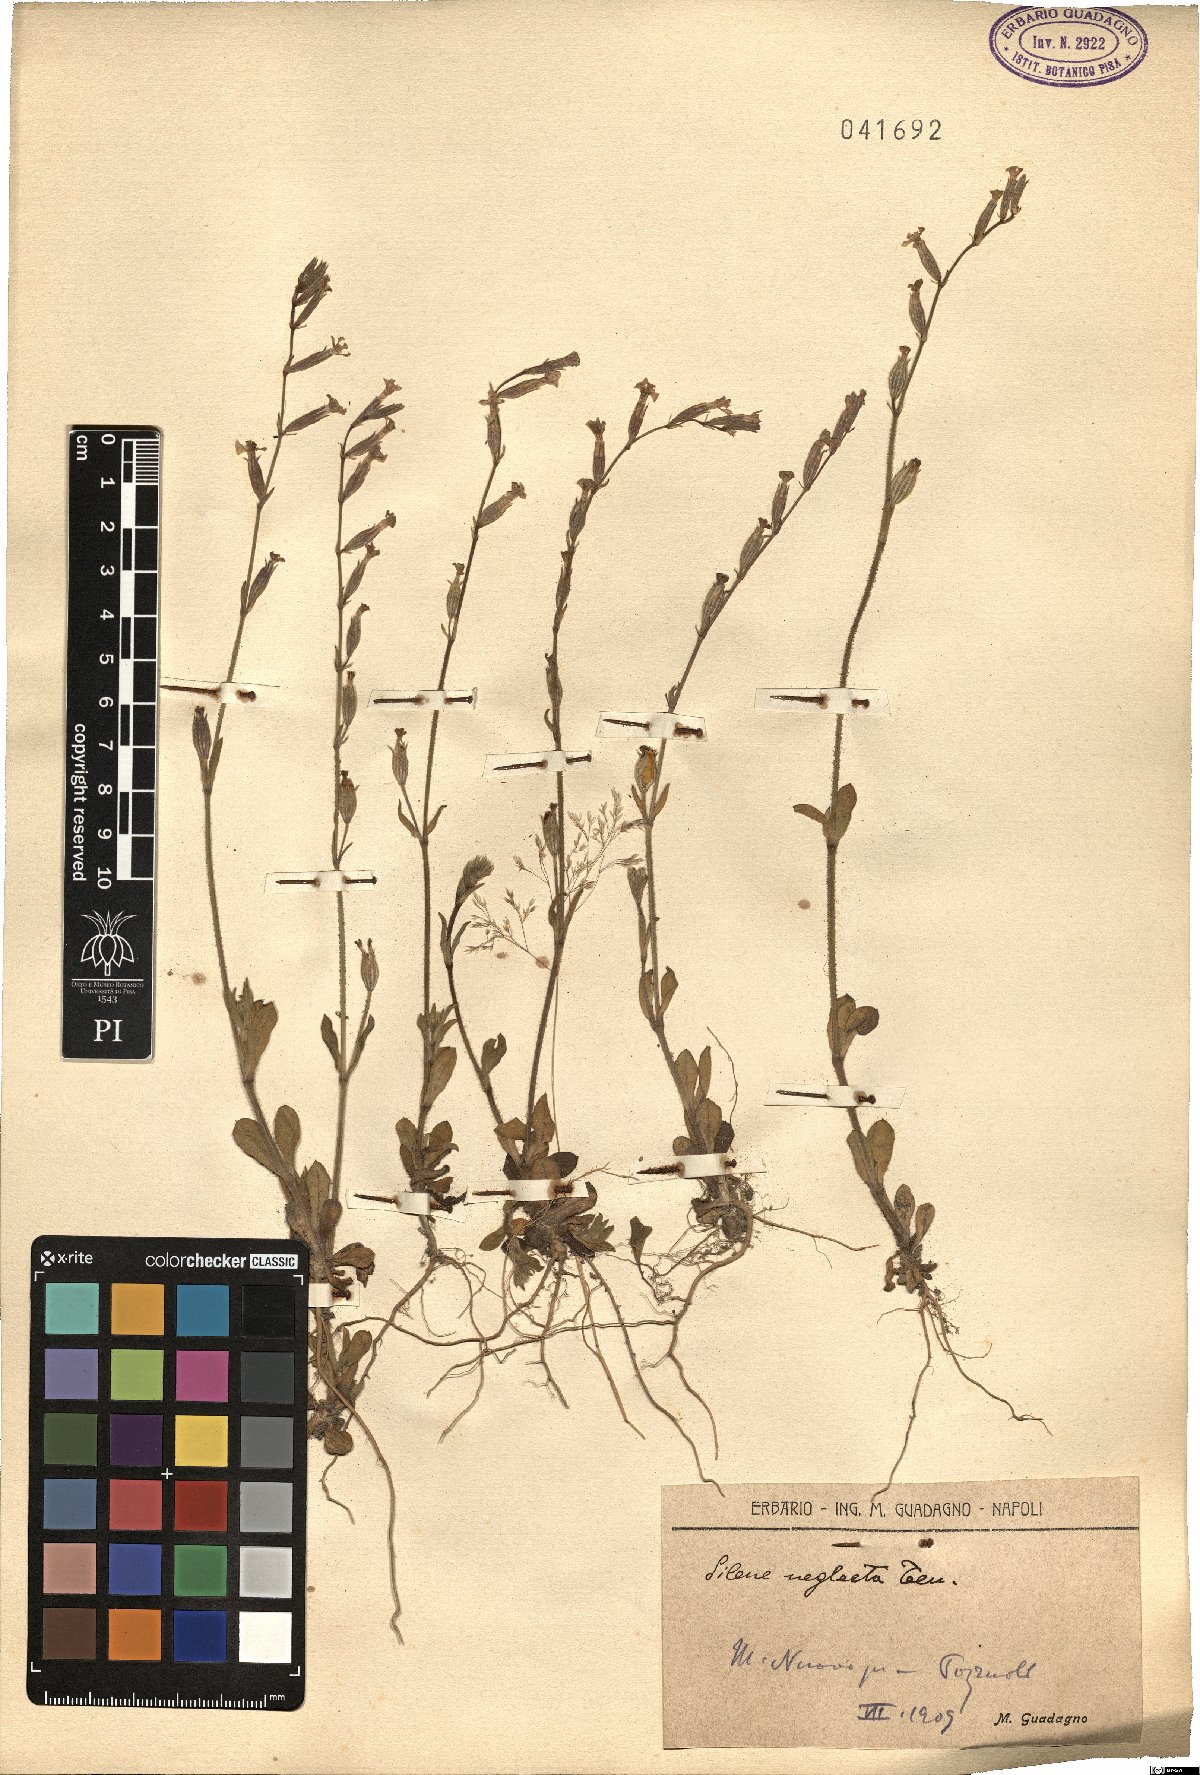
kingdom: Plantae
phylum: Tracheophyta
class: Magnoliopsida
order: Caryophyllales
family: Caryophyllaceae
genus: Silene
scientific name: Silene neglecta
